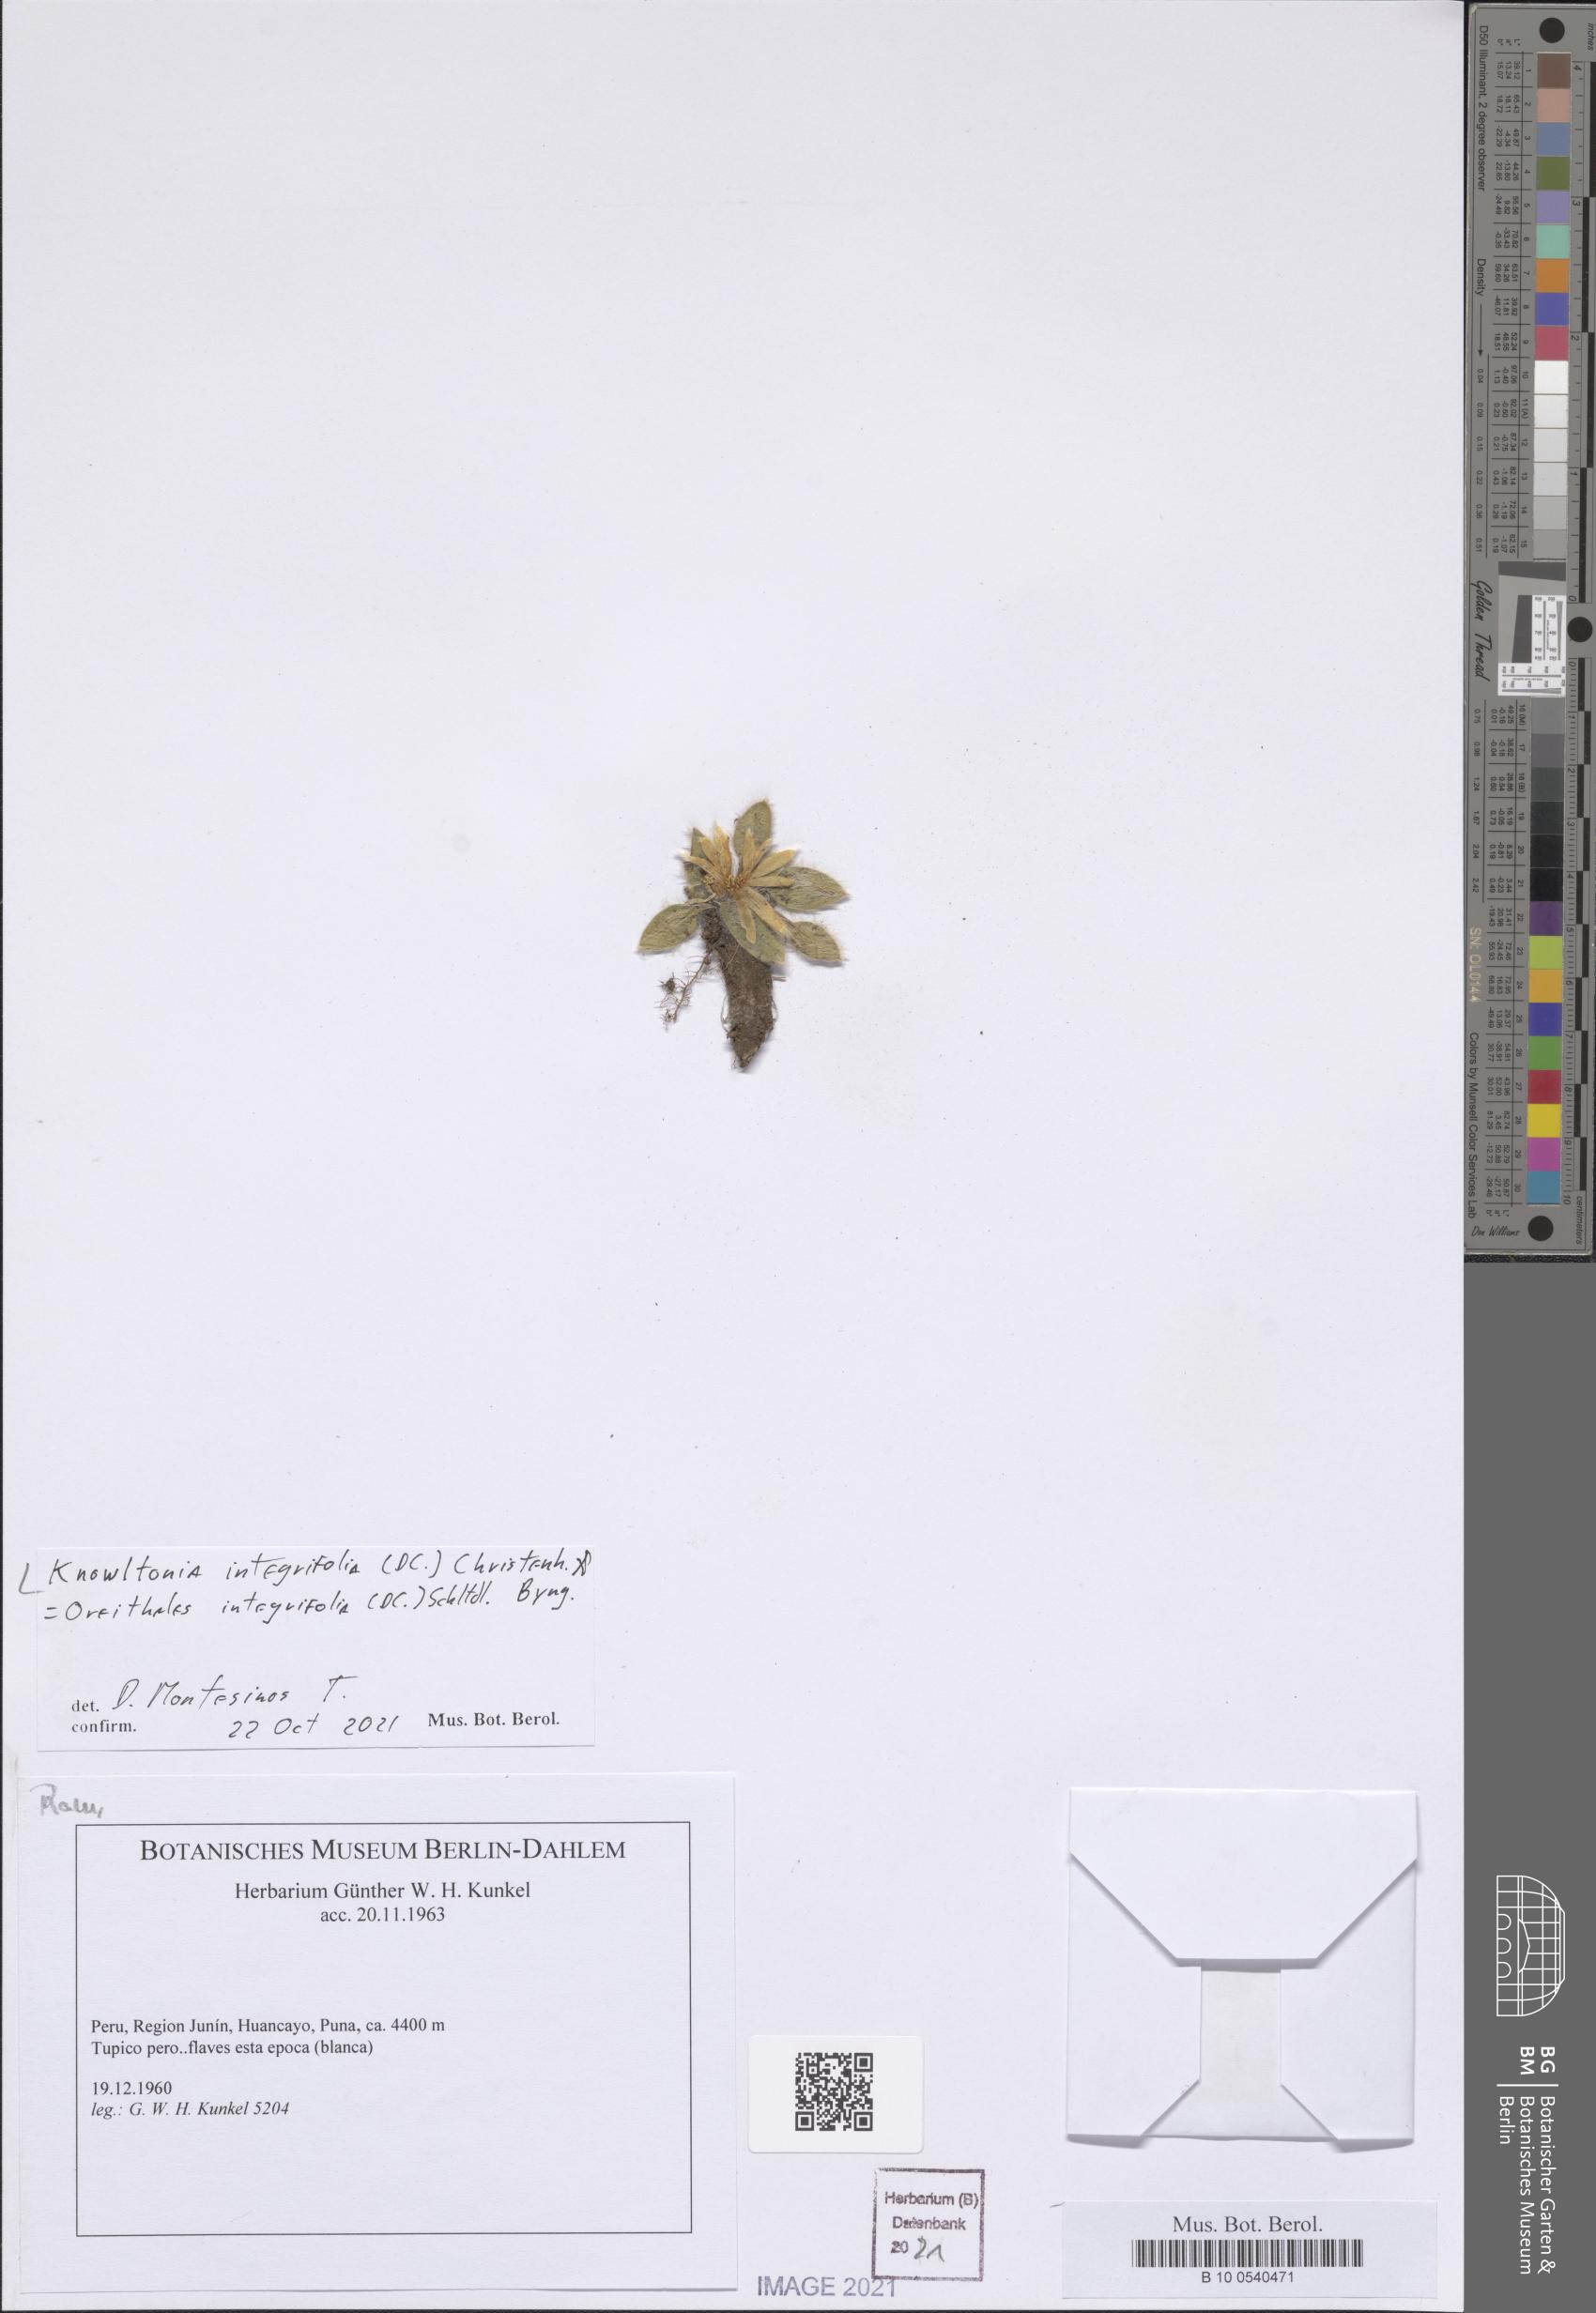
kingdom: Plantae
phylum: Tracheophyta
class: Magnoliopsida
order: Ranunculales
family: Ranunculaceae
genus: Knowltonia
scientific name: Knowltonia integrifolia
